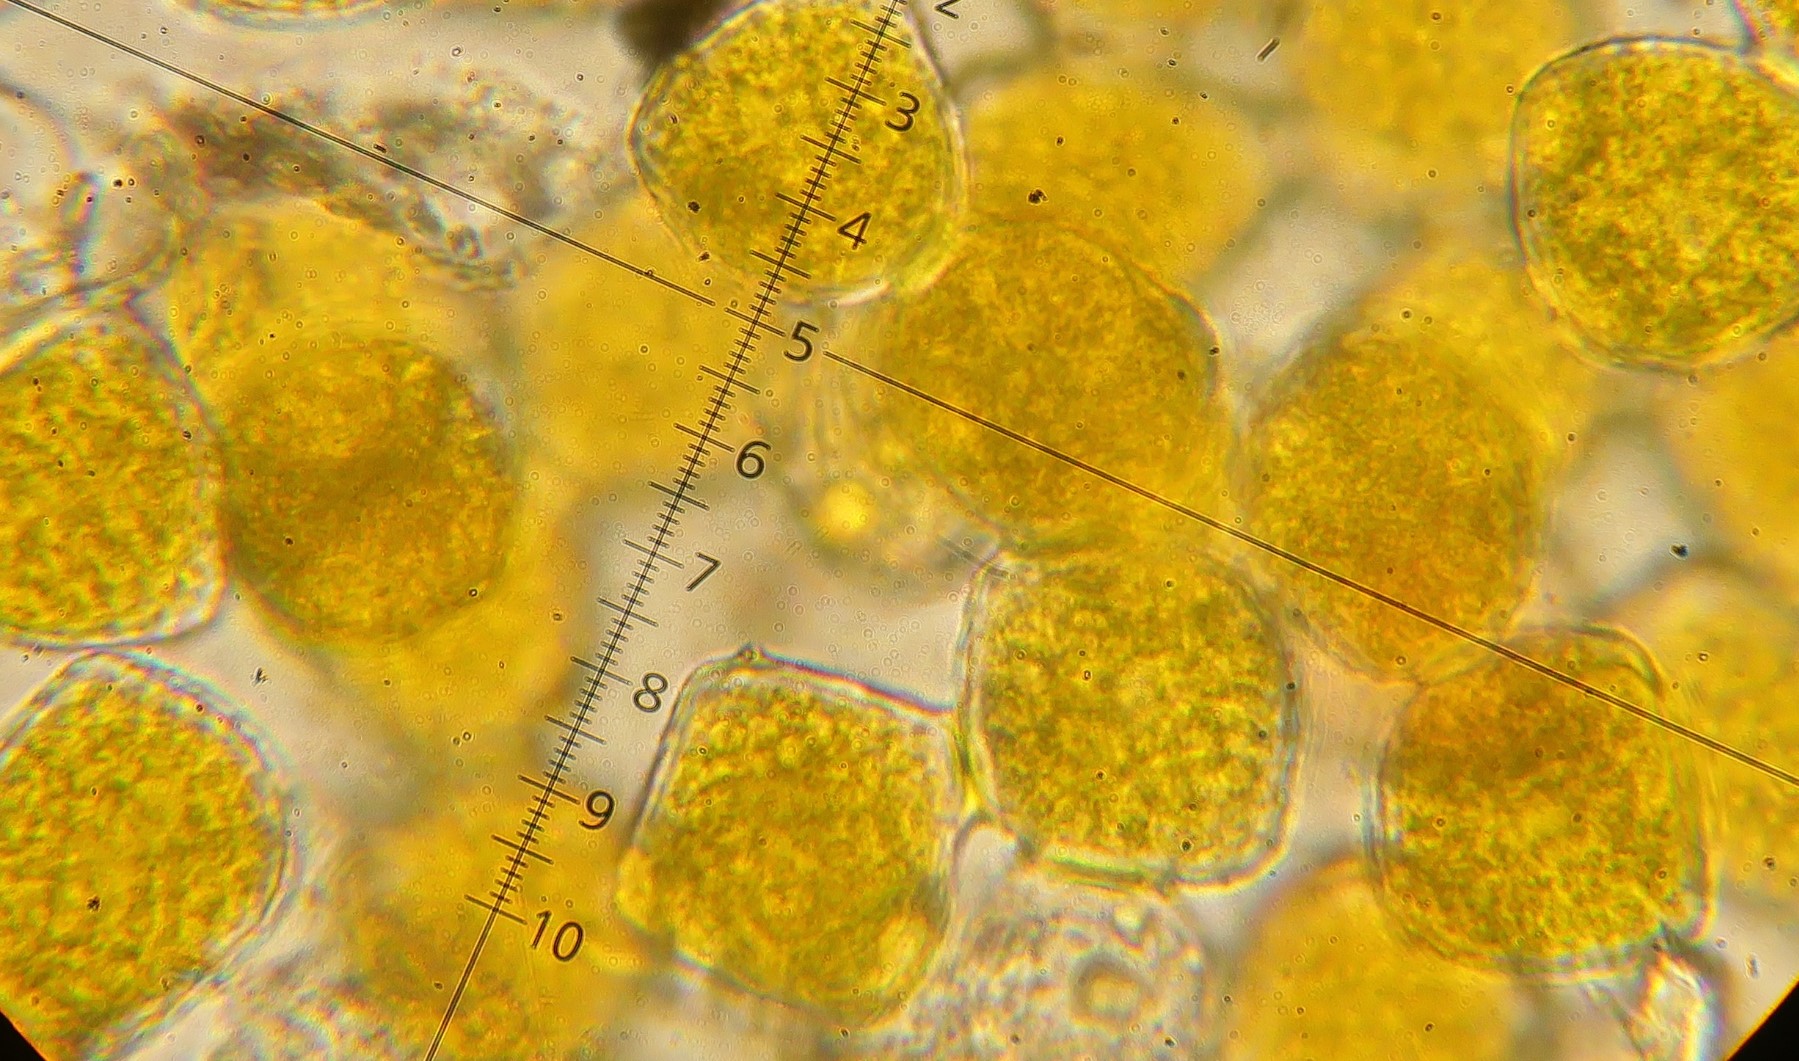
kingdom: Fungi
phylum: Basidiomycota
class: Pucciniomycetes
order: Pucciniales
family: Phragmidiaceae
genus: Kuehneola
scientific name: Kuehneola uredinis
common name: klynger-kædecellerust
